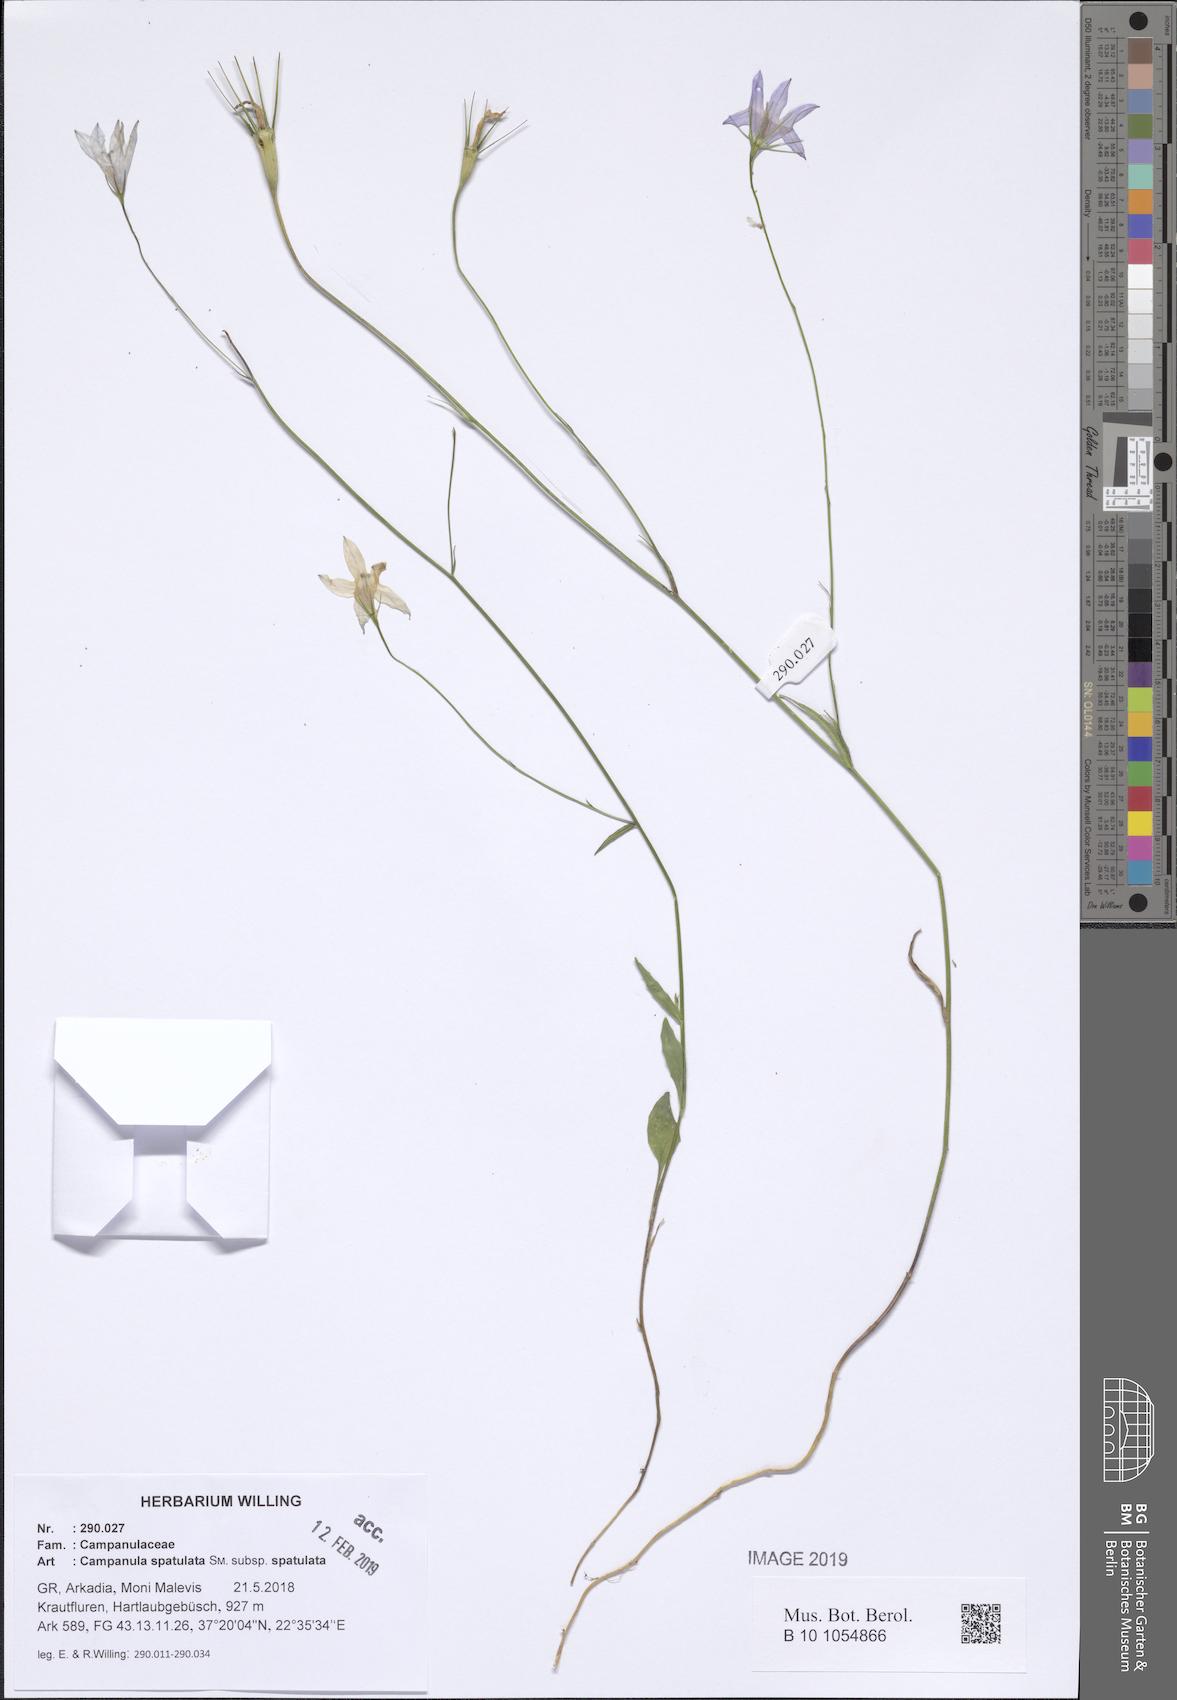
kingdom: Plantae
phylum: Tracheophyta
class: Magnoliopsida
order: Asterales
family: Campanulaceae
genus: Campanula
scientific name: Campanula spatulata
